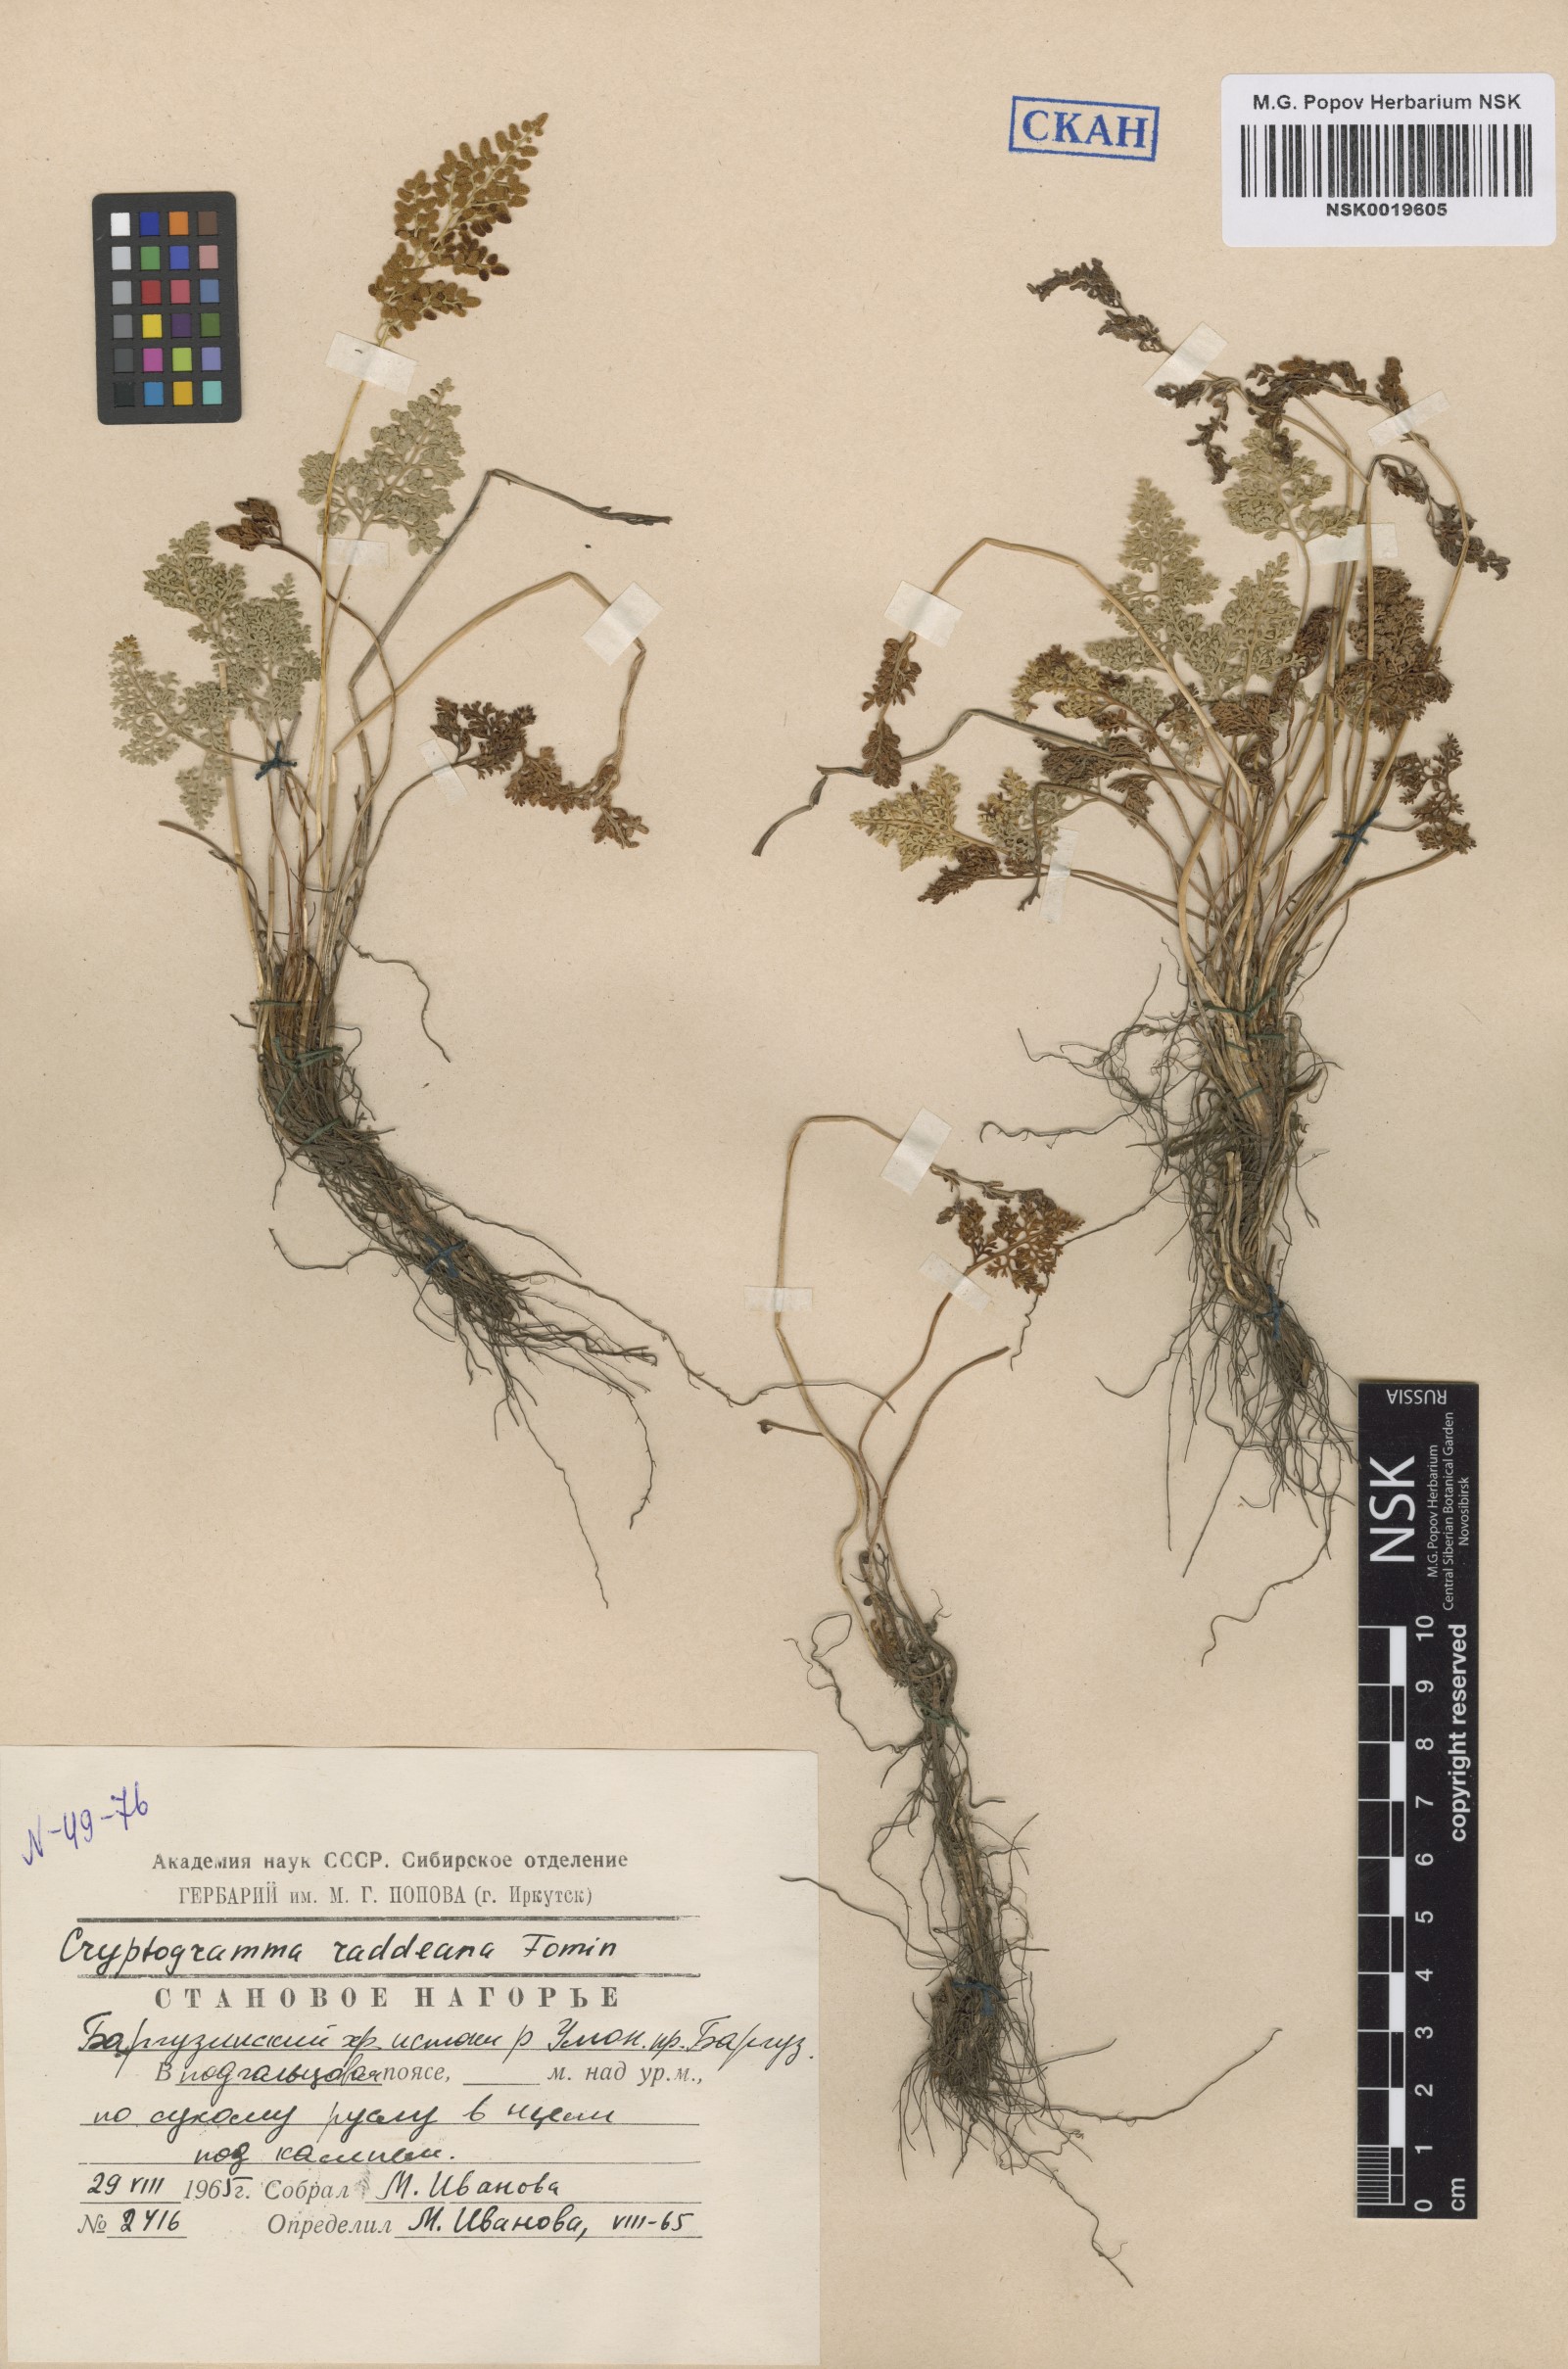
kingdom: Plantae
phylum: Tracheophyta
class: Polypodiopsida
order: Polypodiales
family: Pteridaceae
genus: Cryptogramma
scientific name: Cryptogramma brunoniana
